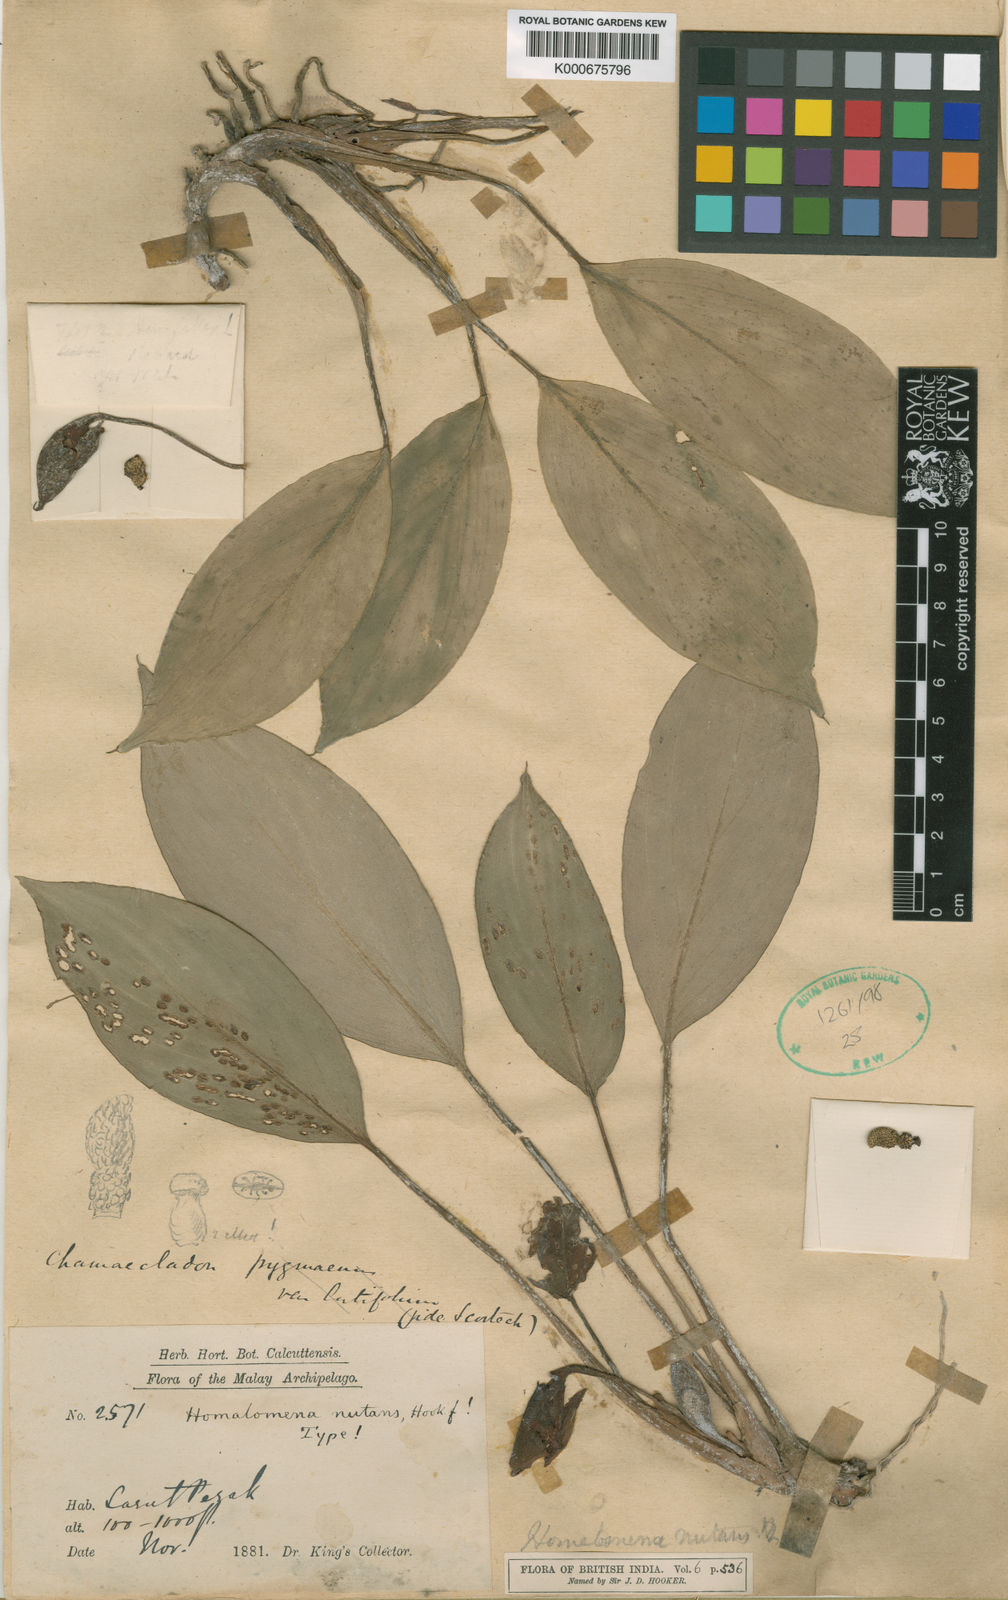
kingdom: Plantae
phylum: Tracheophyta
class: Liliopsida
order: Alismatales
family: Araceae
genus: Homalomena
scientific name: Homalomena nutans
